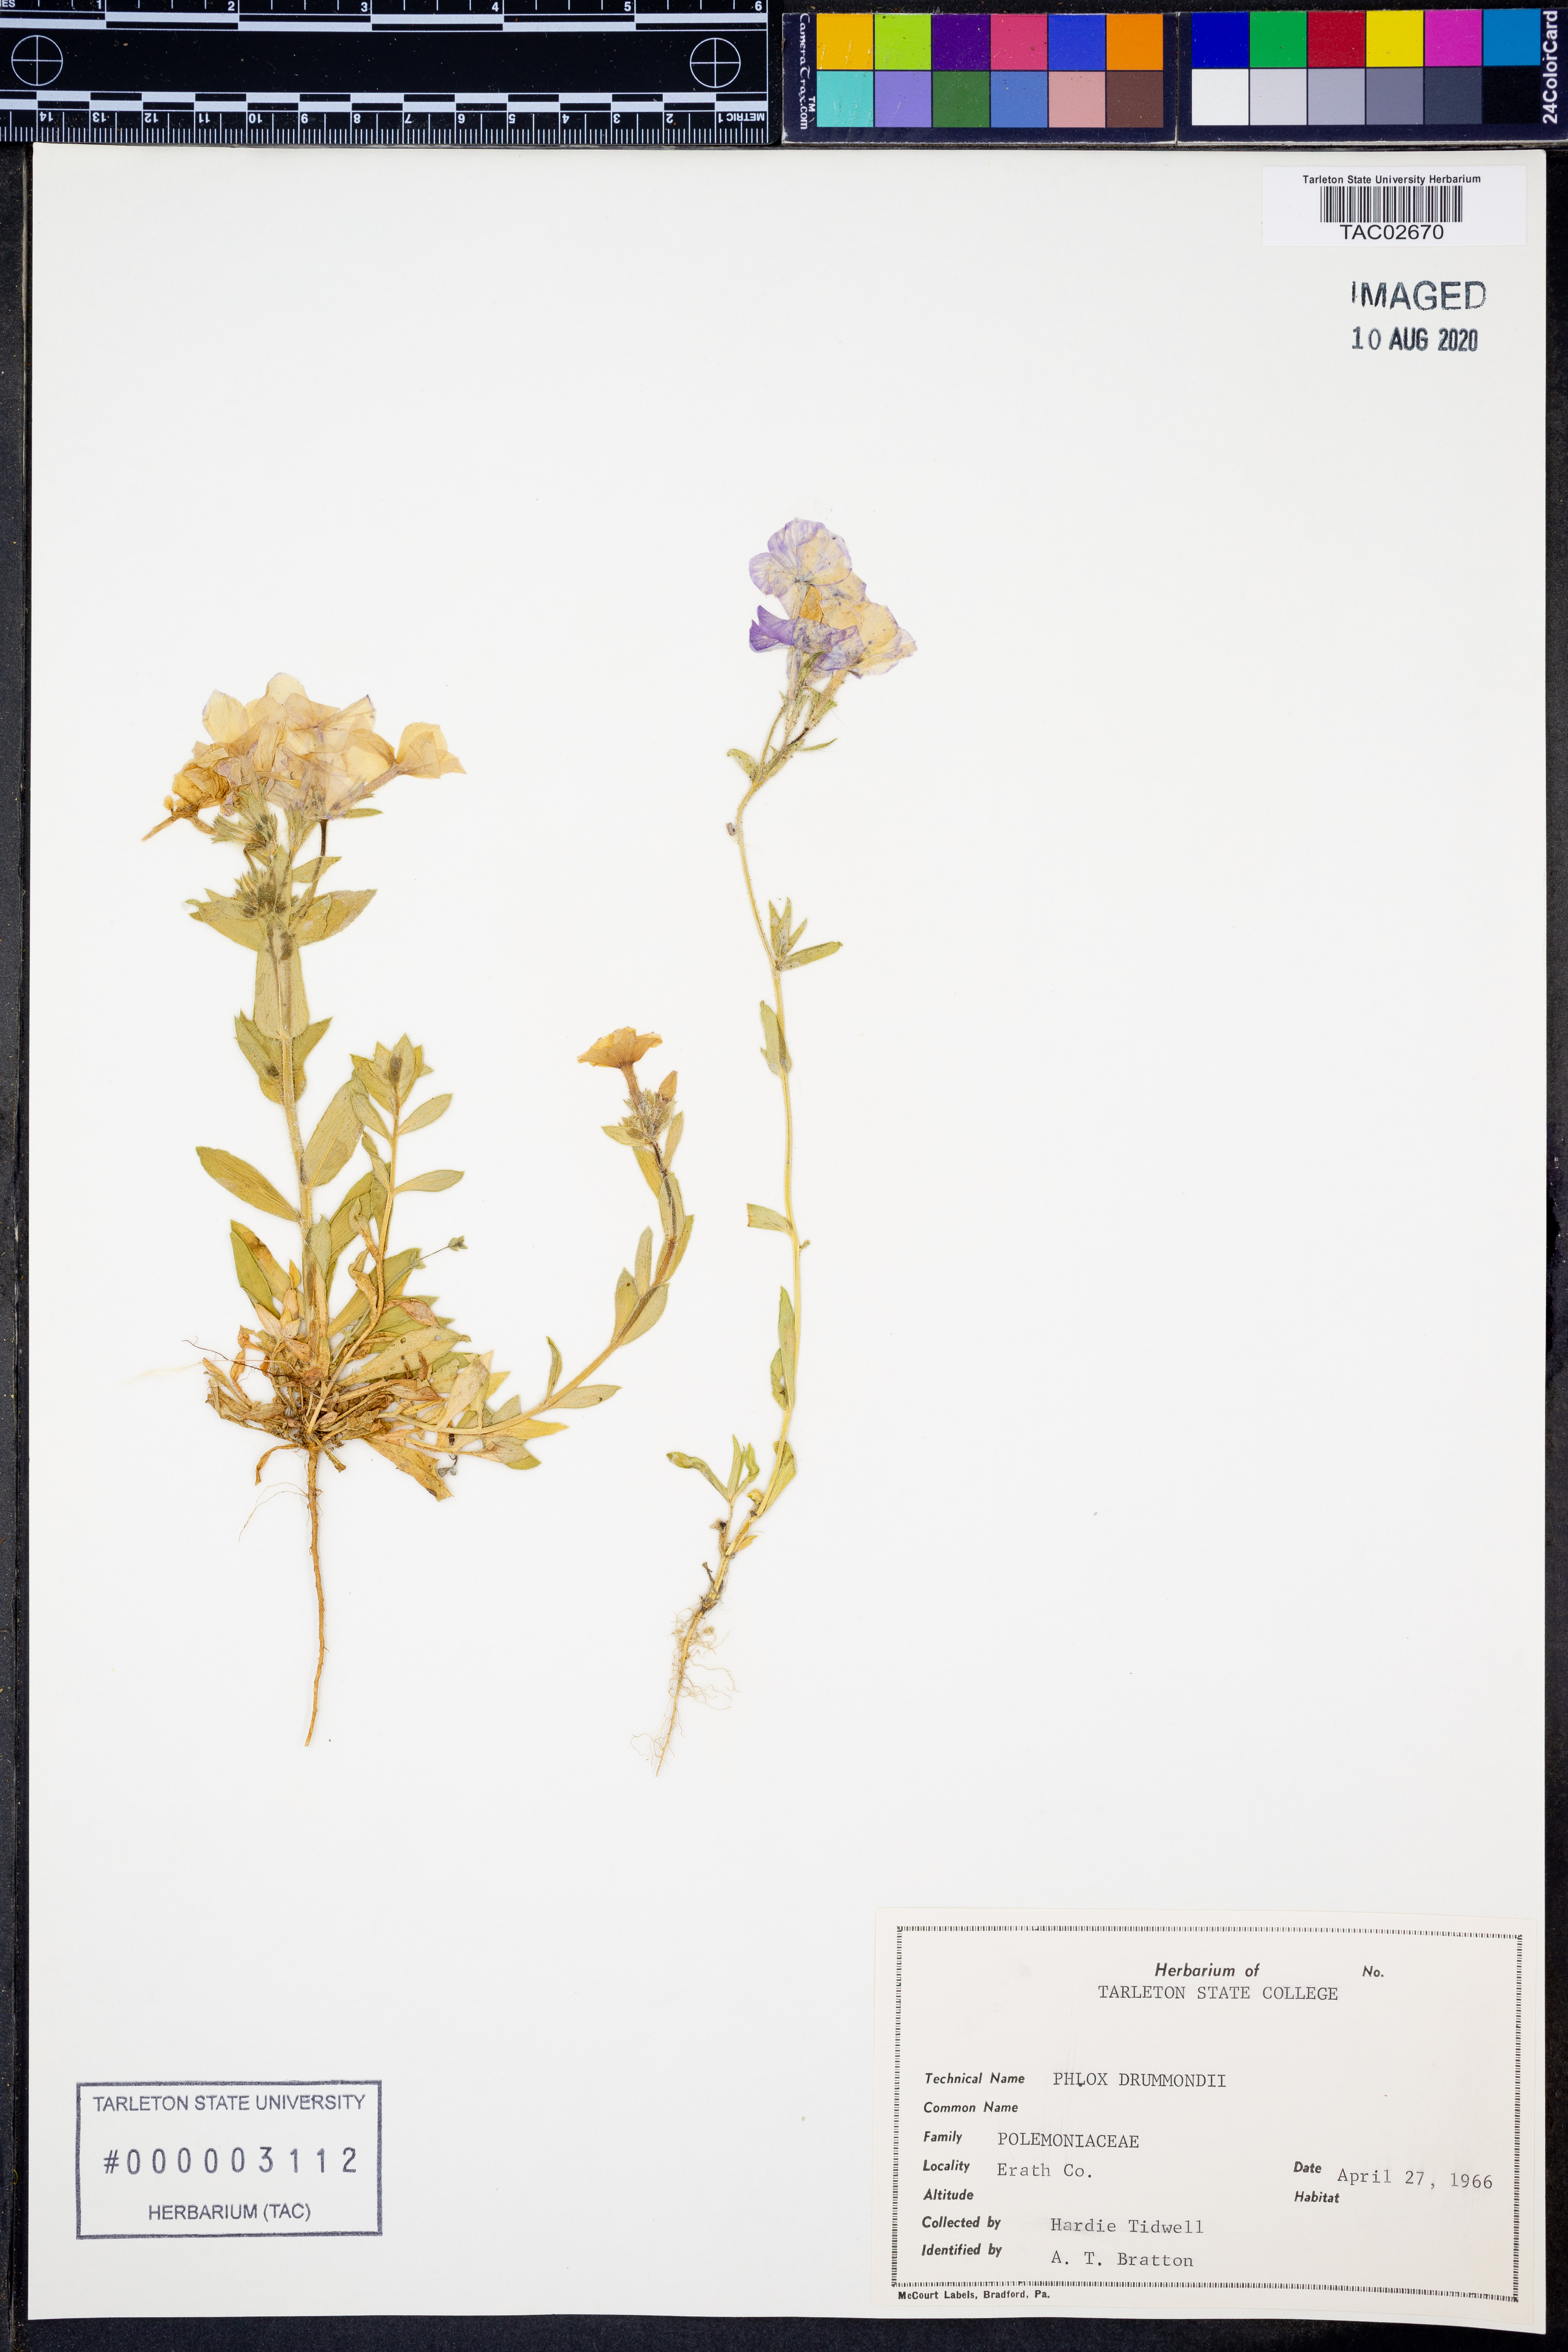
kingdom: Plantae
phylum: Tracheophyta
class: Magnoliopsida
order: Ericales
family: Polemoniaceae
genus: Phlox
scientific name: Phlox drummondii
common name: Drummond's phlox
